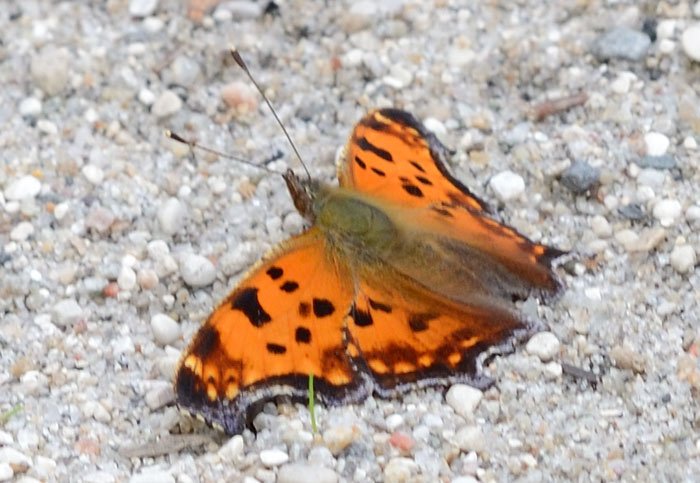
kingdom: Animalia
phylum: Arthropoda
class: Insecta
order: Lepidoptera
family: Nymphalidae
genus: Polygonia
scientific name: Polygonia comma
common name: Eastern Comma
